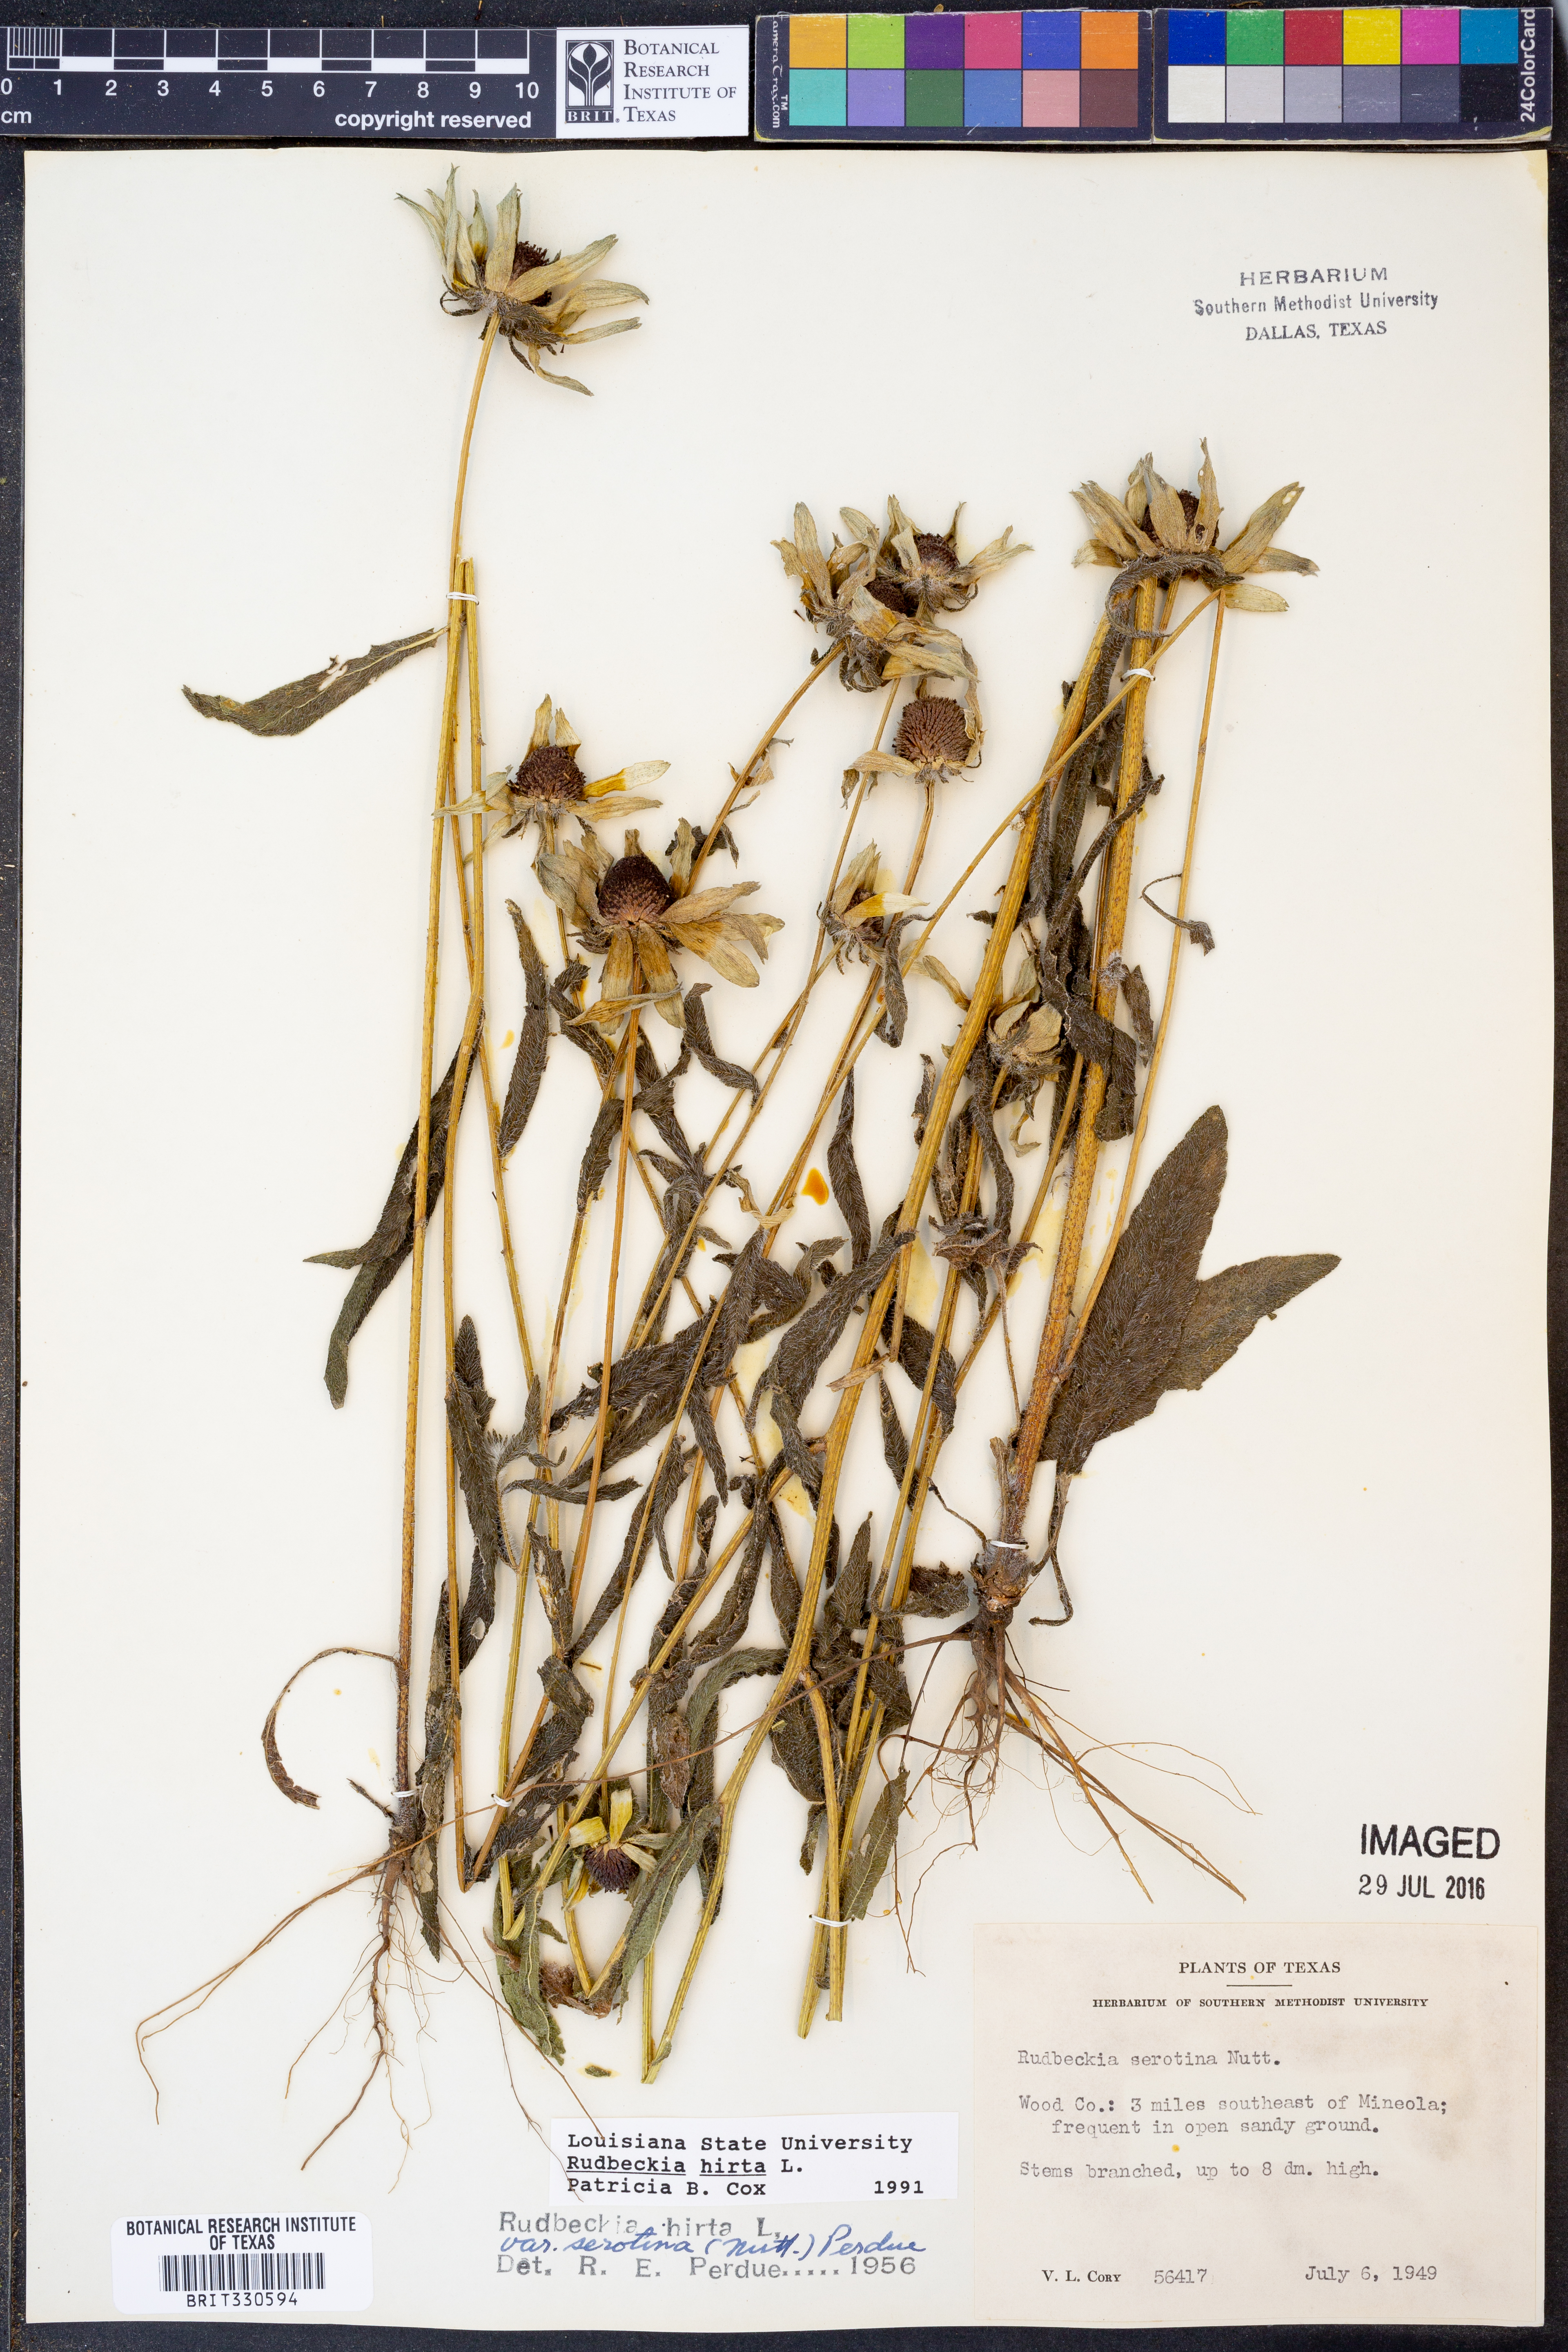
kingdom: Plantae
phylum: Tracheophyta
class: Magnoliopsida
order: Asterales
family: Asteraceae
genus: Rudbeckia
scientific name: Rudbeckia hirta
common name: Black-eyed-susan
